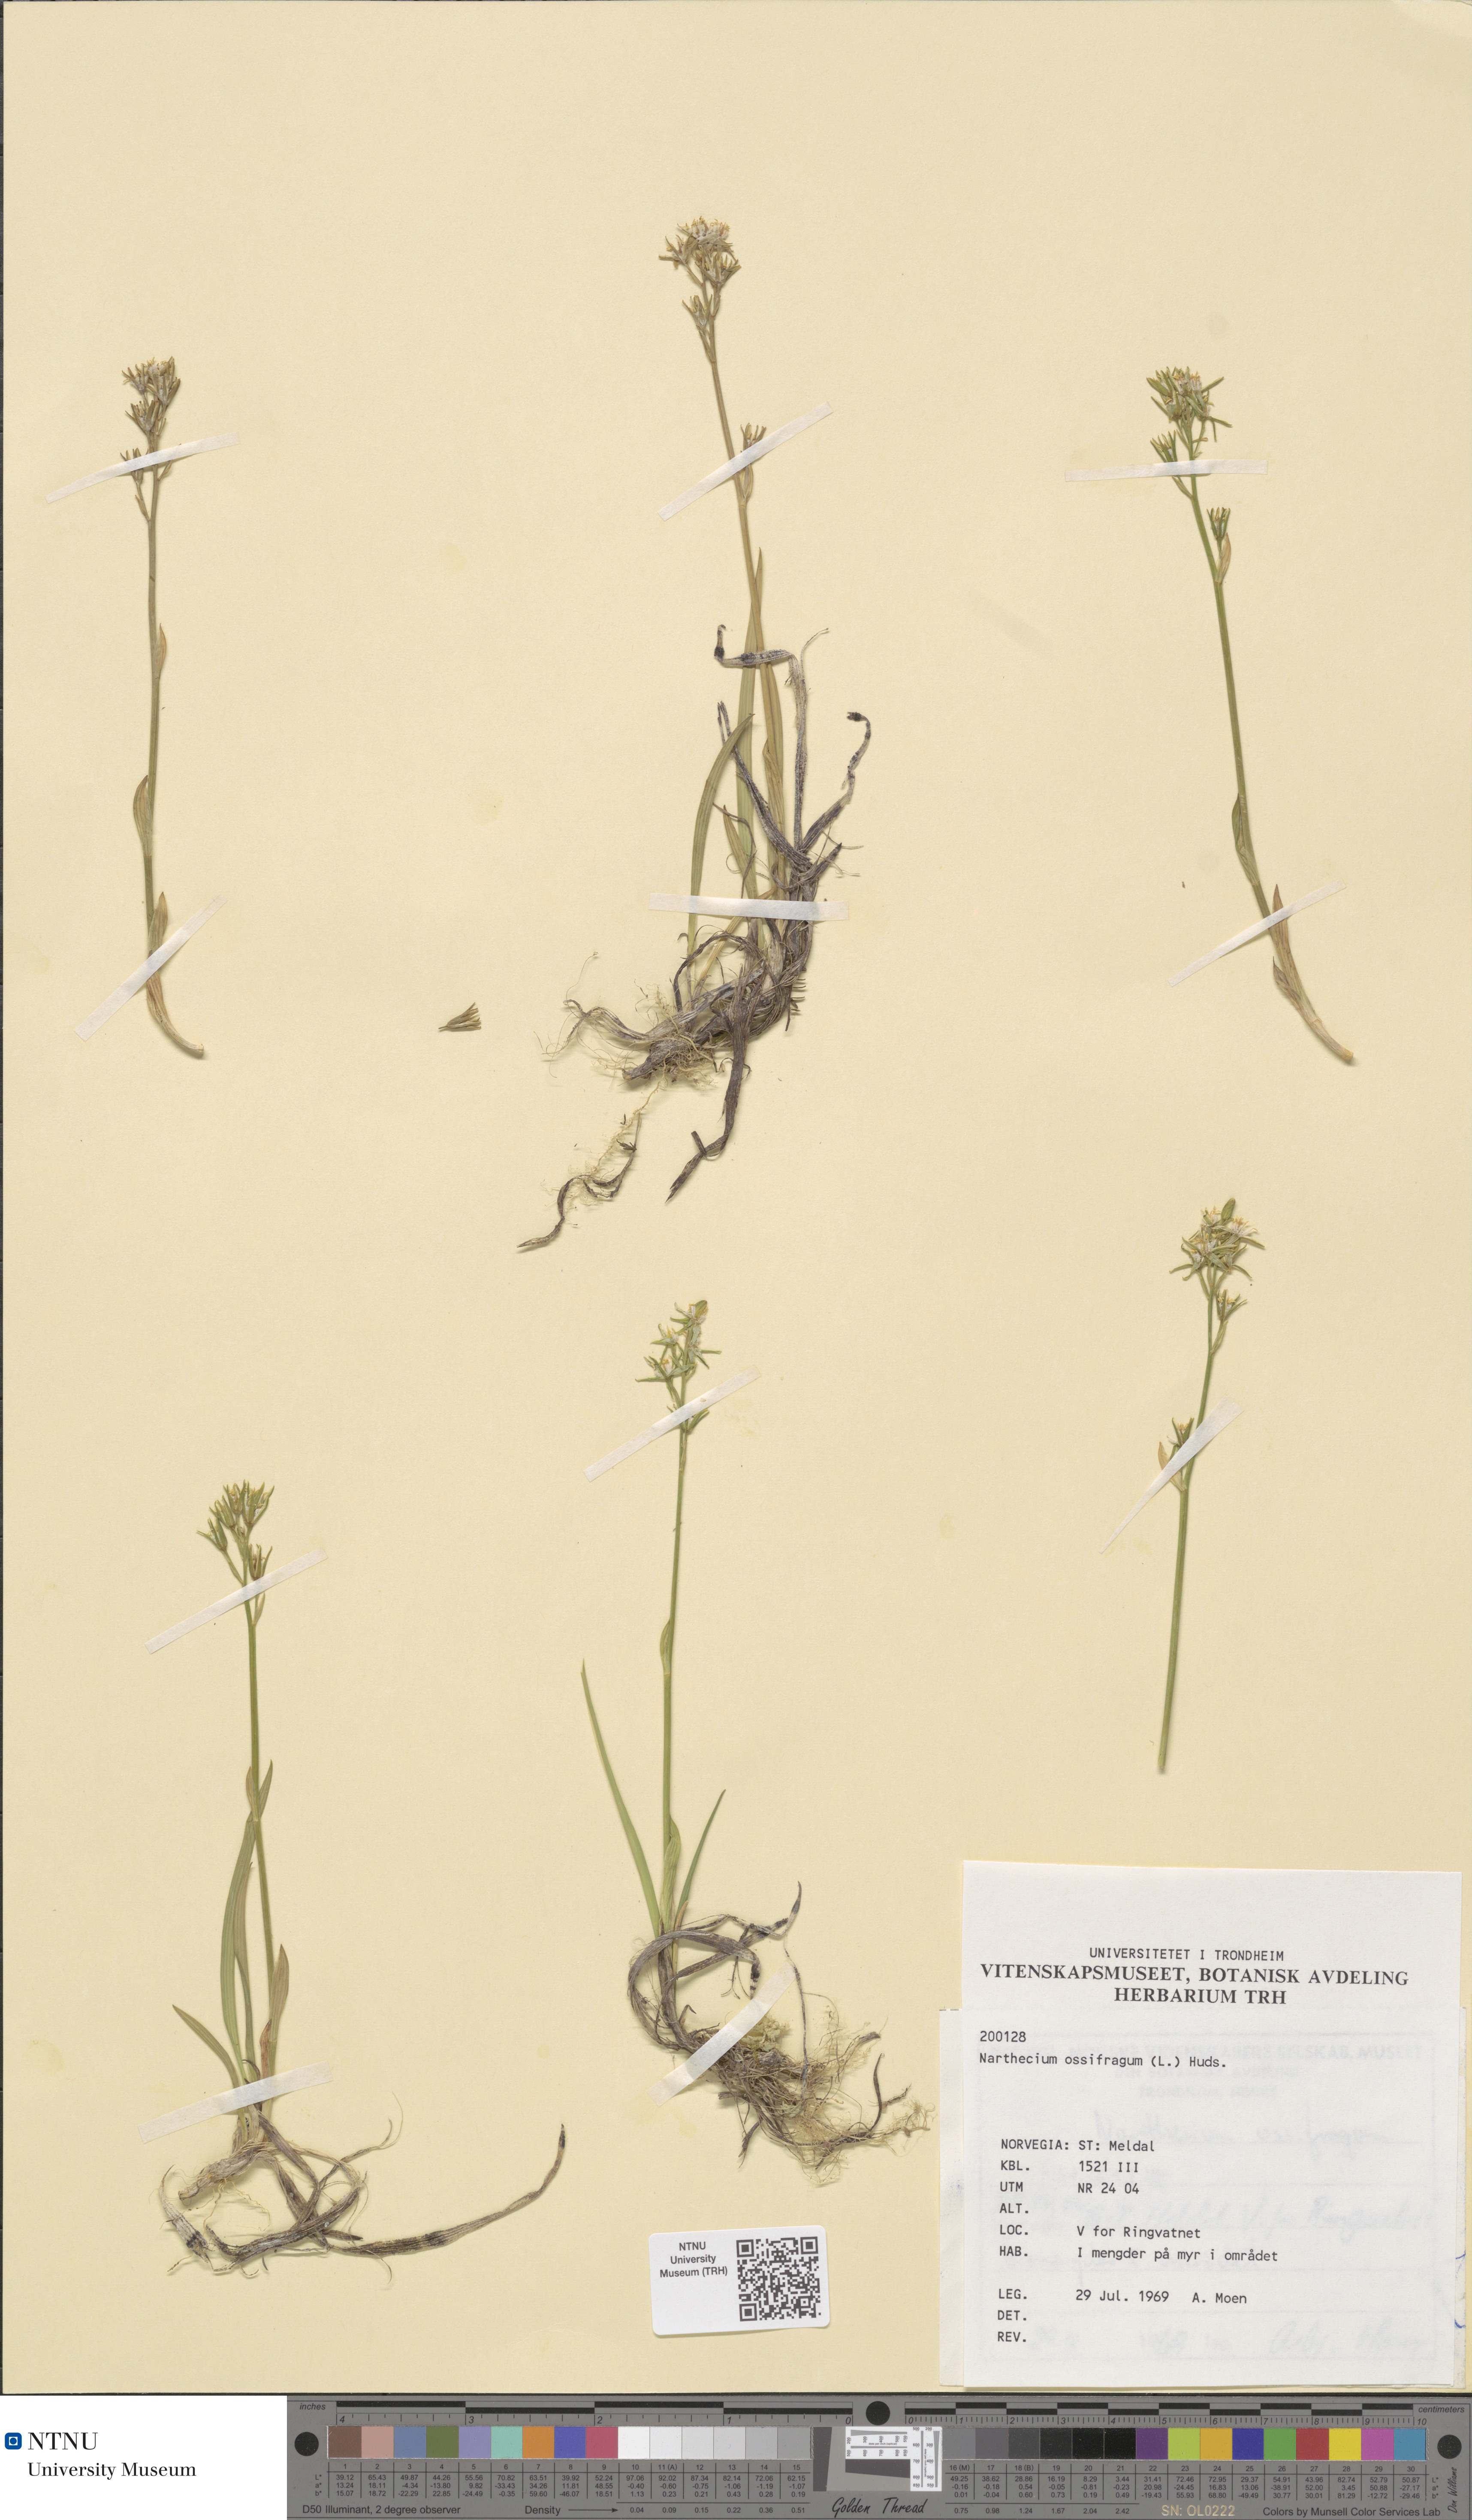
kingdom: Plantae
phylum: Tracheophyta
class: Liliopsida
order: Dioscoreales
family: Nartheciaceae
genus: Narthecium
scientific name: Narthecium ossifragum
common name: Bog asphodel
